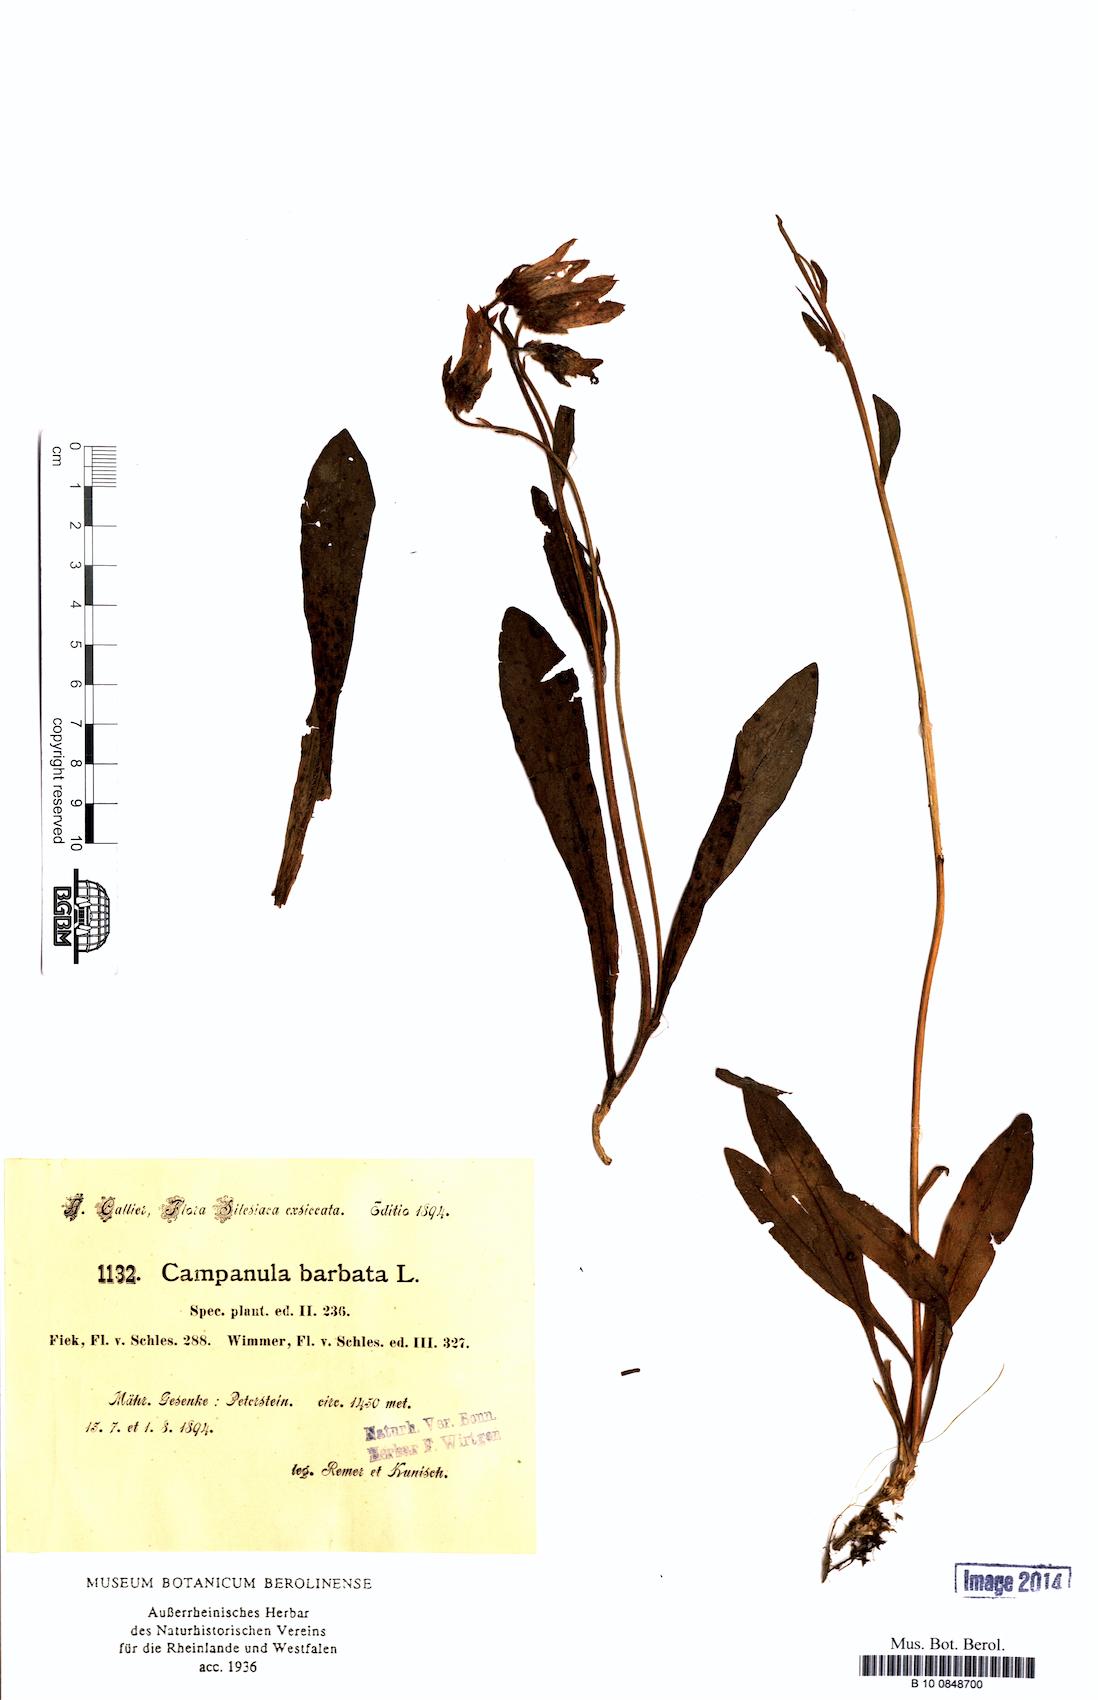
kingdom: Plantae
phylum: Tracheophyta
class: Magnoliopsida
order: Asterales
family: Campanulaceae
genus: Campanula
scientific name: Campanula barbata
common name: Bearded bellflower
